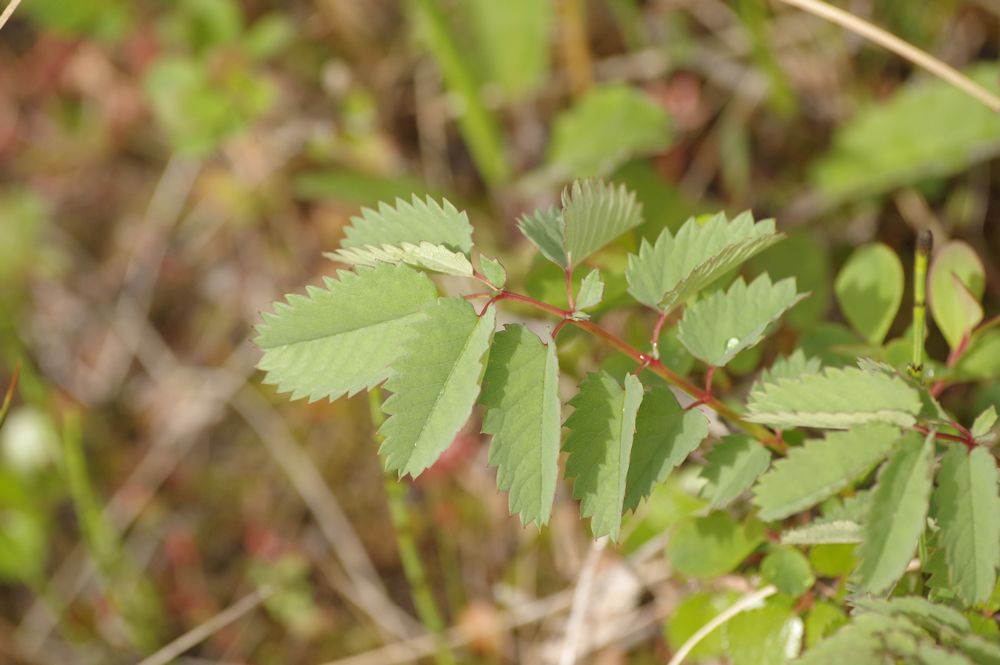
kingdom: Plantae
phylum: Tracheophyta
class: Magnoliopsida
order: Rosales
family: Rosaceae
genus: Sanguisorba
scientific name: Sanguisorba officinalis
